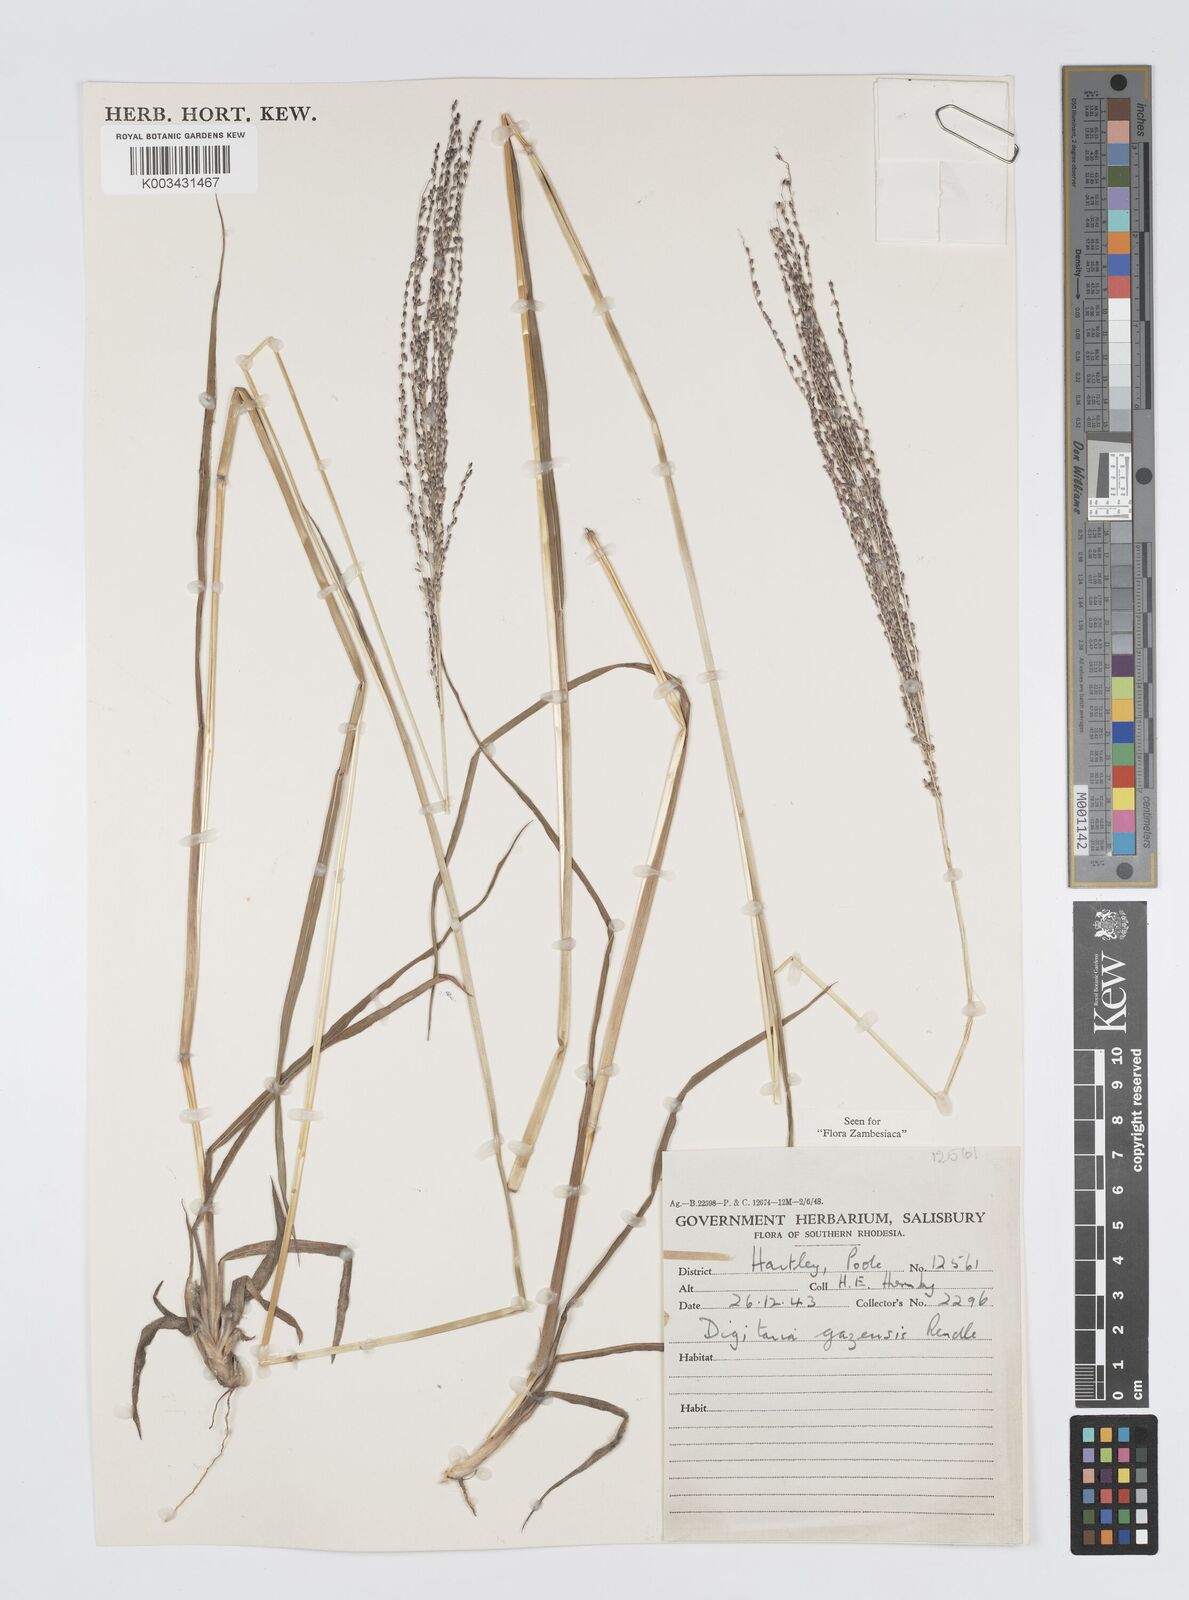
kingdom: Plantae
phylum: Tracheophyta
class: Liliopsida
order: Poales
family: Poaceae
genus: Digitaria
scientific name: Digitaria gazensis
